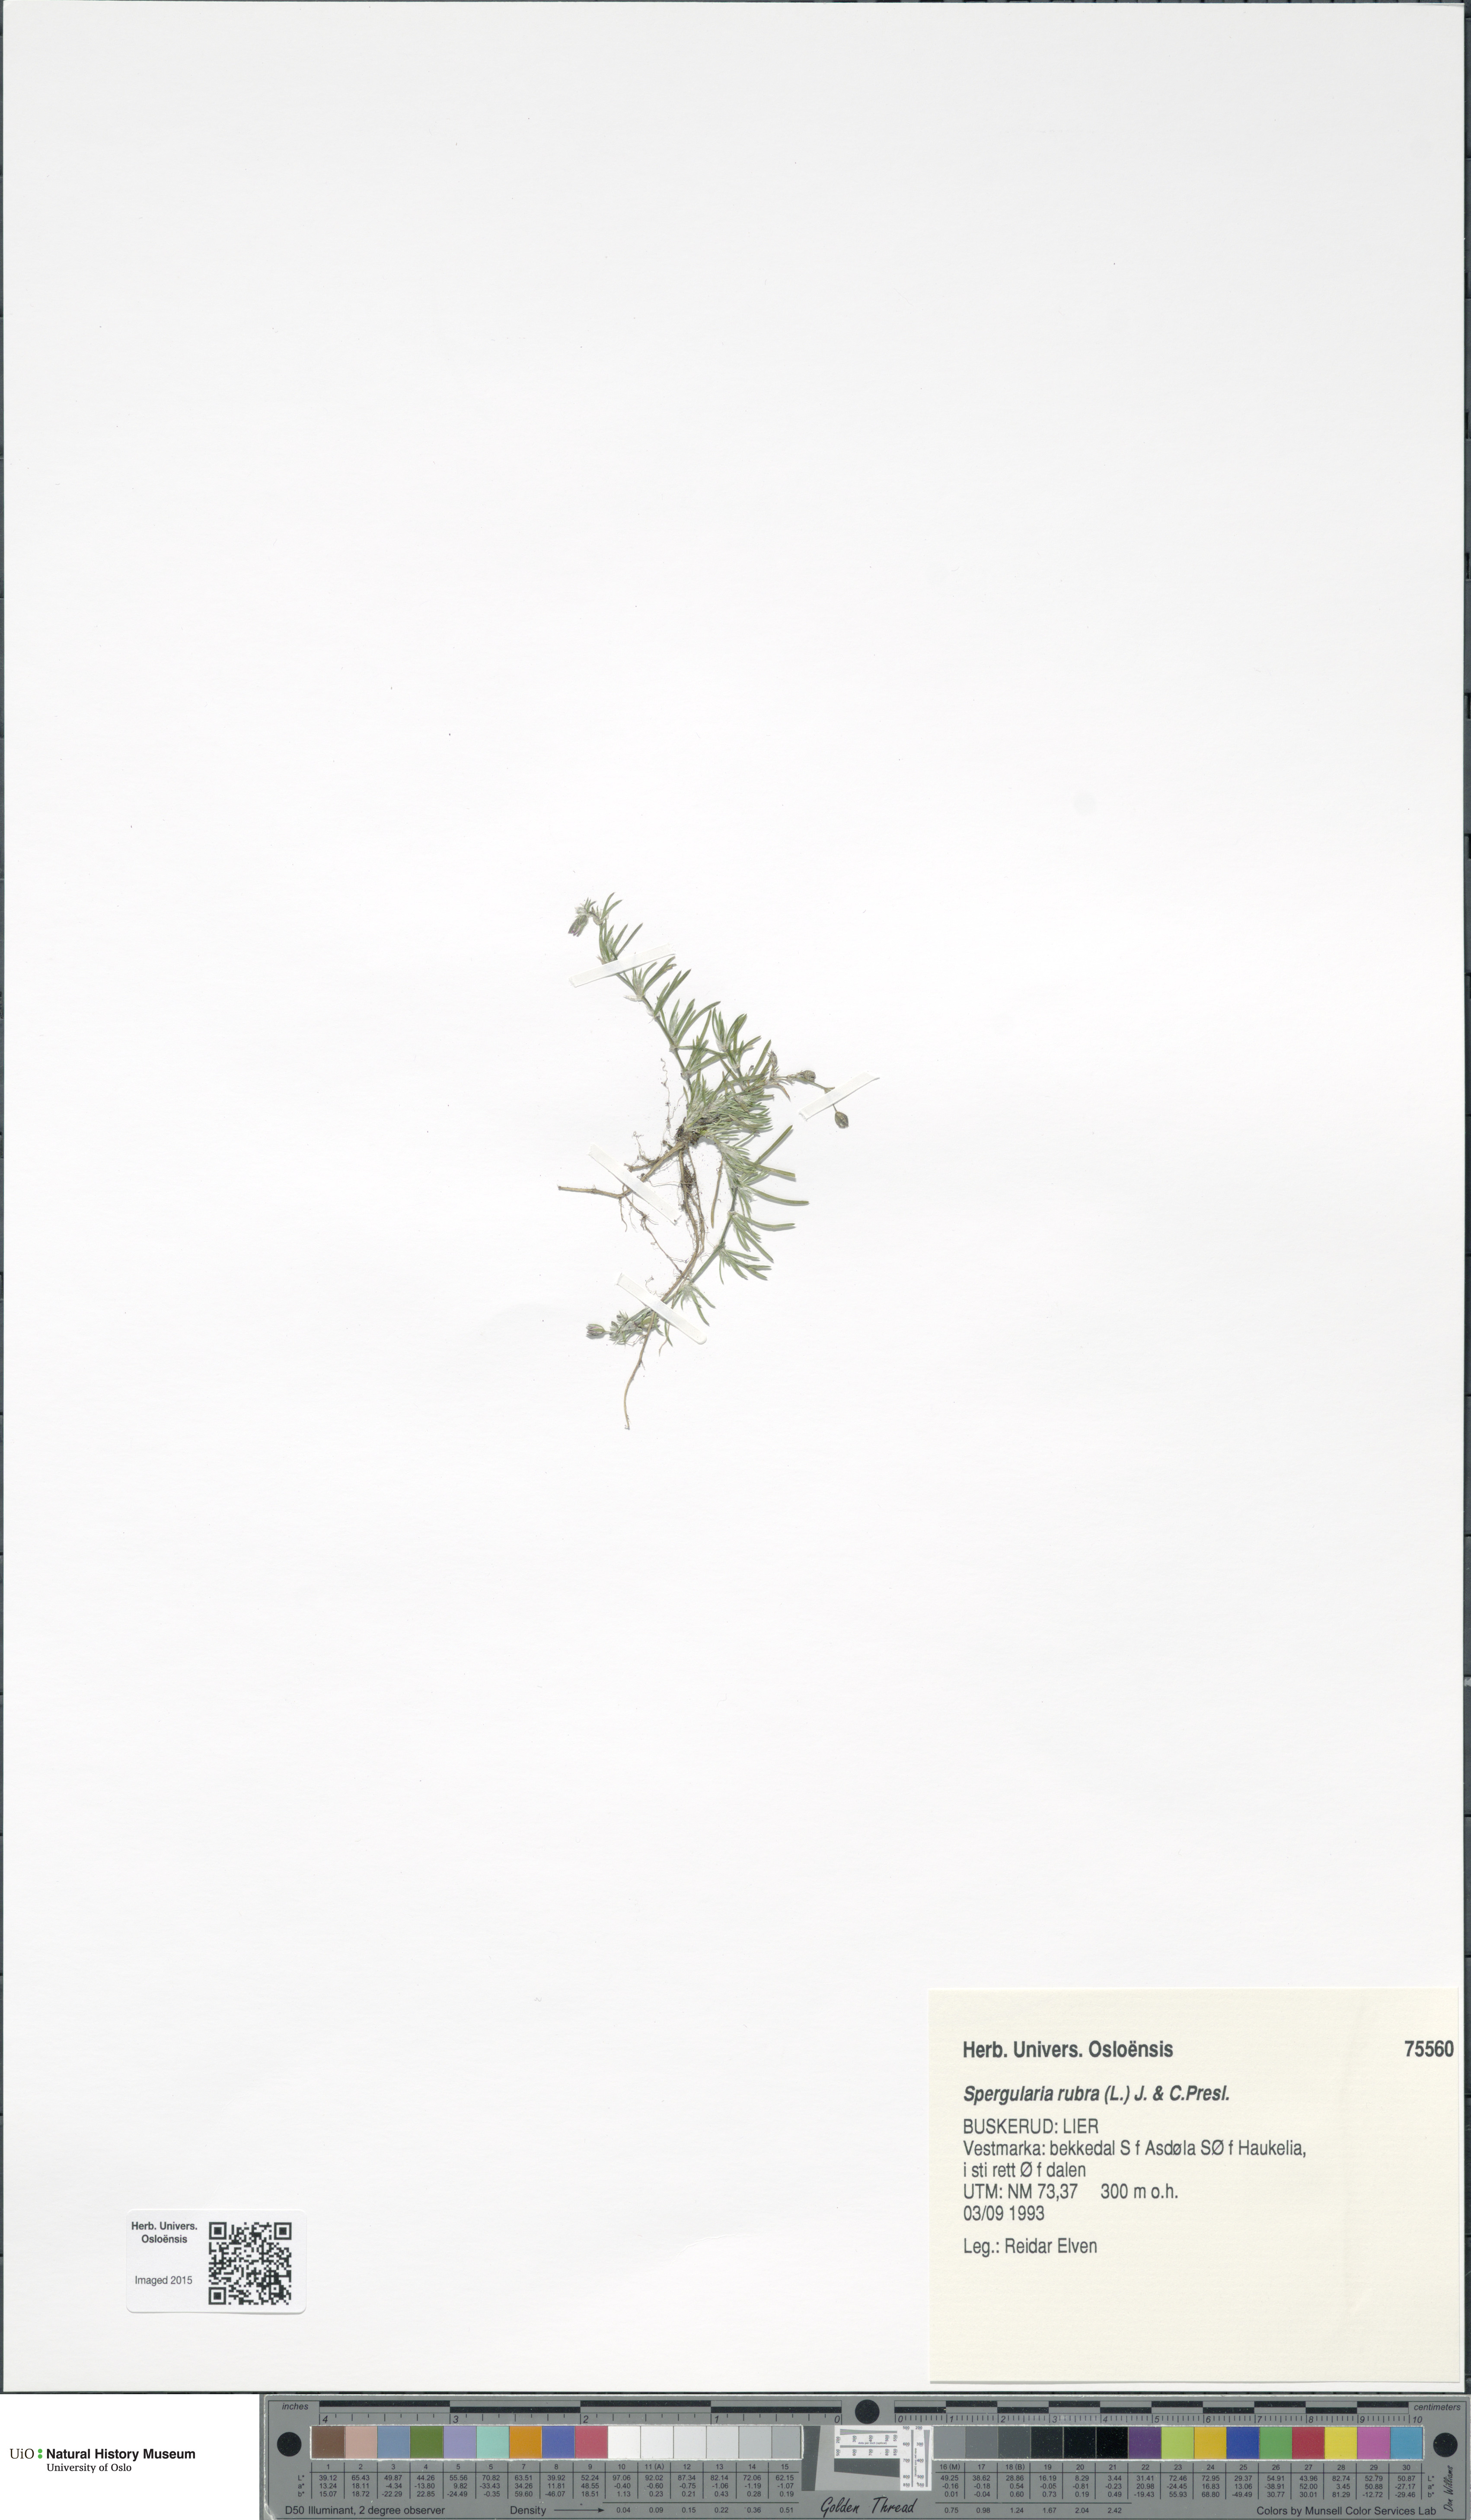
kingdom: Plantae
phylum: Tracheophyta
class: Magnoliopsida
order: Caryophyllales
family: Caryophyllaceae
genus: Spergularia
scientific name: Spergularia rubra
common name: Red sand-spurrey
